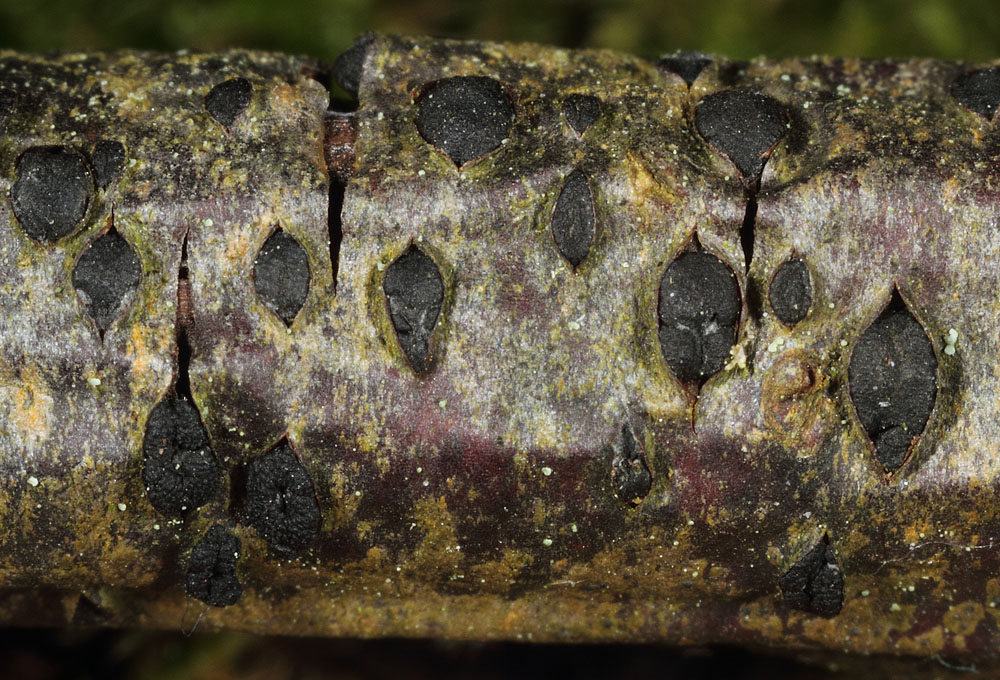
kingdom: Fungi
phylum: Ascomycota
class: Dothideomycetes
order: Botryosphaeriales
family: Botryosphaeriaceae
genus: Dothiora
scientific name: Dothiora ribesia
